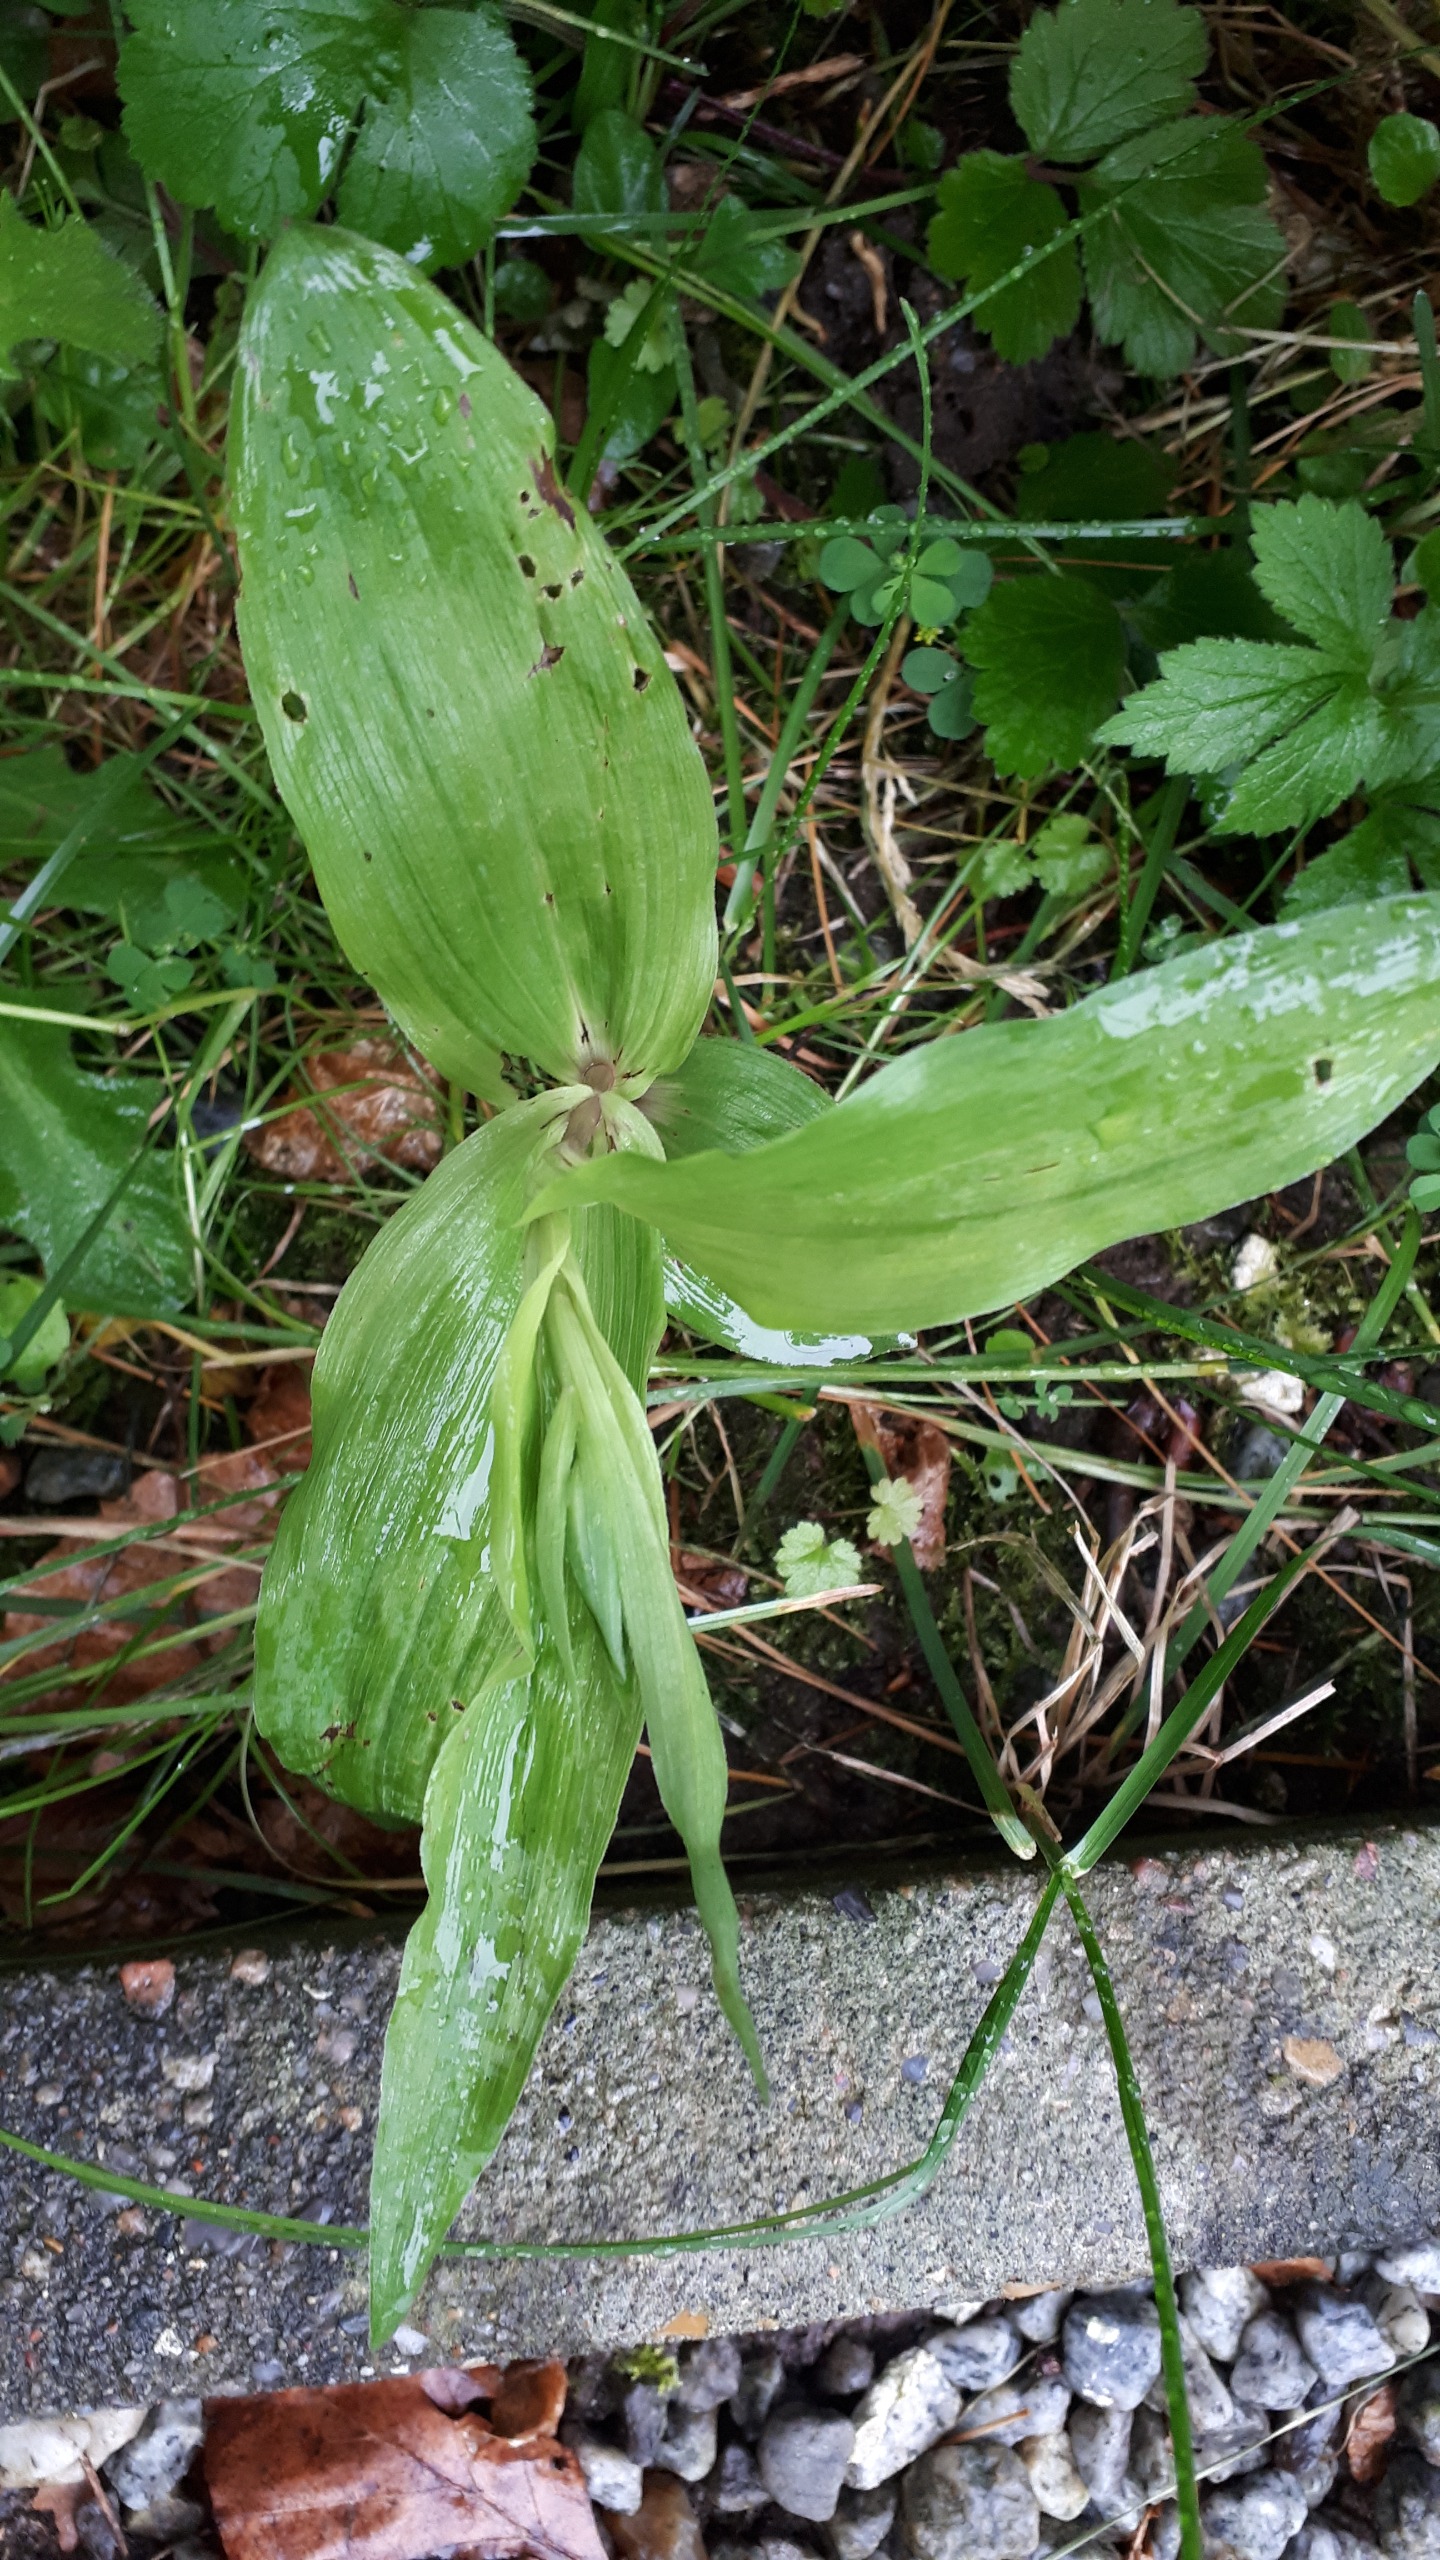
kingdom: Plantae
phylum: Tracheophyta
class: Liliopsida
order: Asparagales
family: Orchidaceae
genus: Epipactis
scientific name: Epipactis helleborine
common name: Skov-hullæbe
